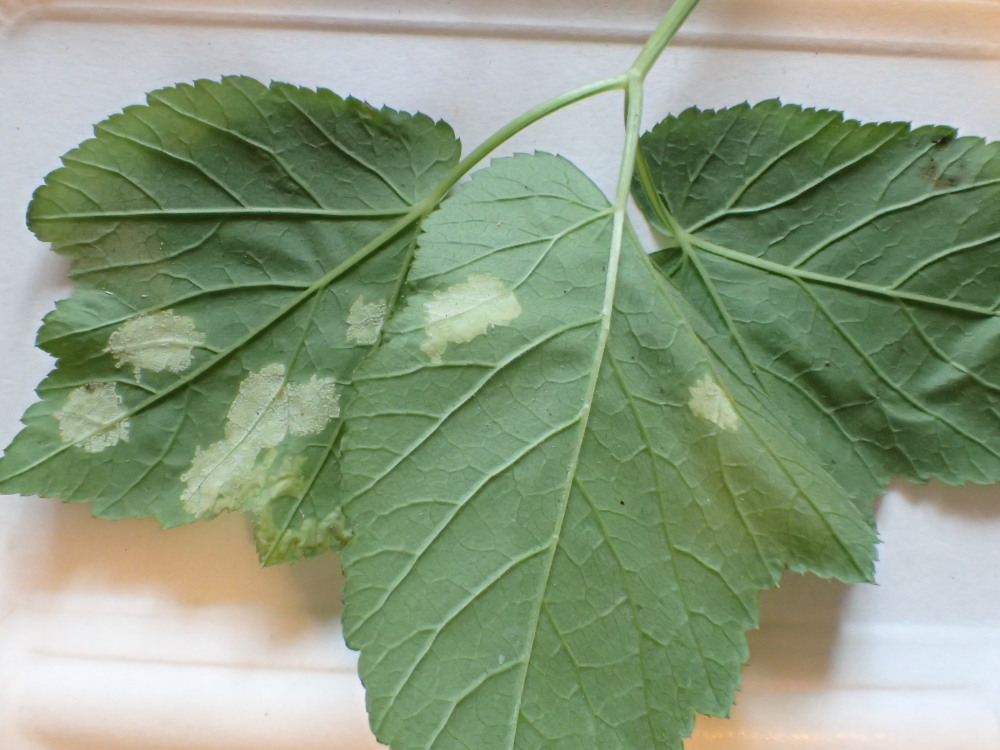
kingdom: Chromista
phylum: Oomycota
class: Peronosporea
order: Peronosporales
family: Peronosporaceae
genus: Peronospora
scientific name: Peronospora crustosa
